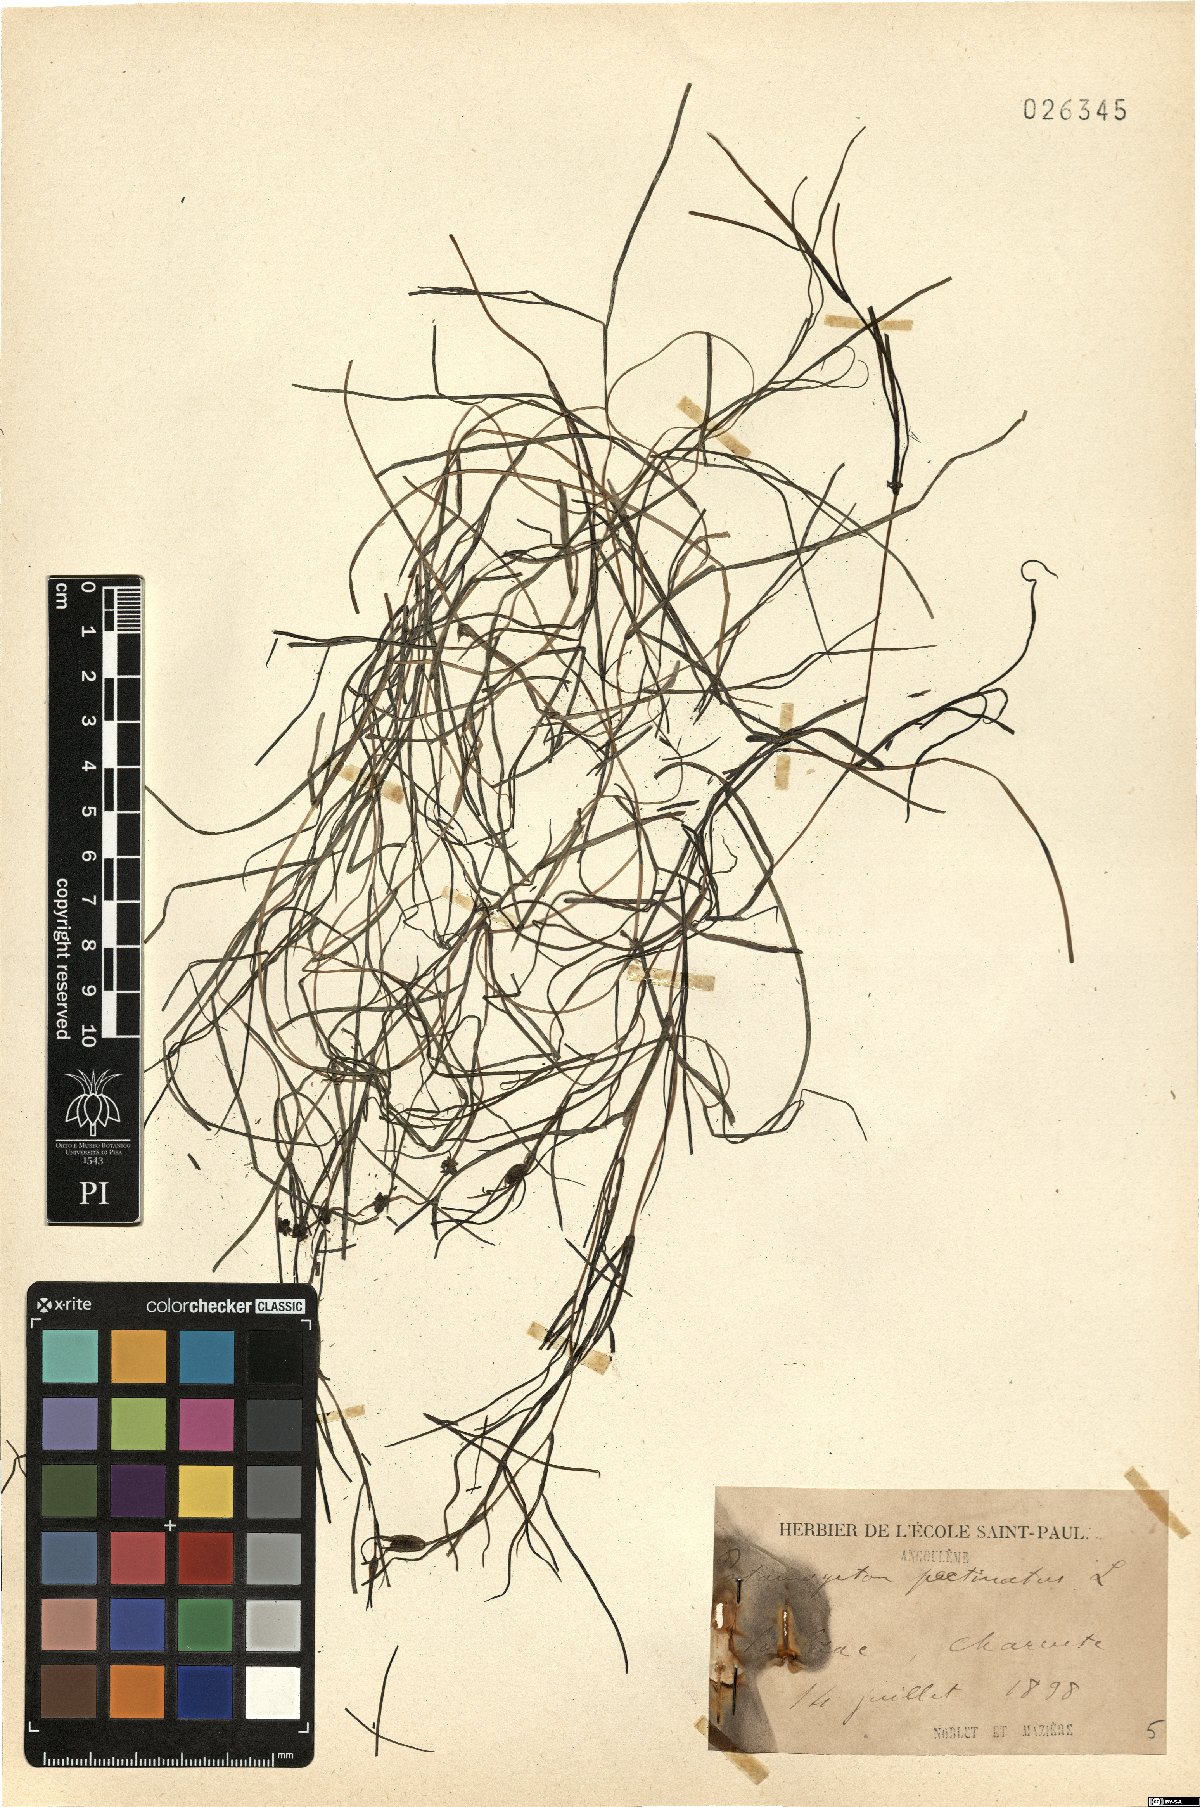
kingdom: Plantae
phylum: Tracheophyta
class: Liliopsida
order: Alismatales
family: Potamogetonaceae
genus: Stuckenia
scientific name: Stuckenia pectinata
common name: Sago pondweed
